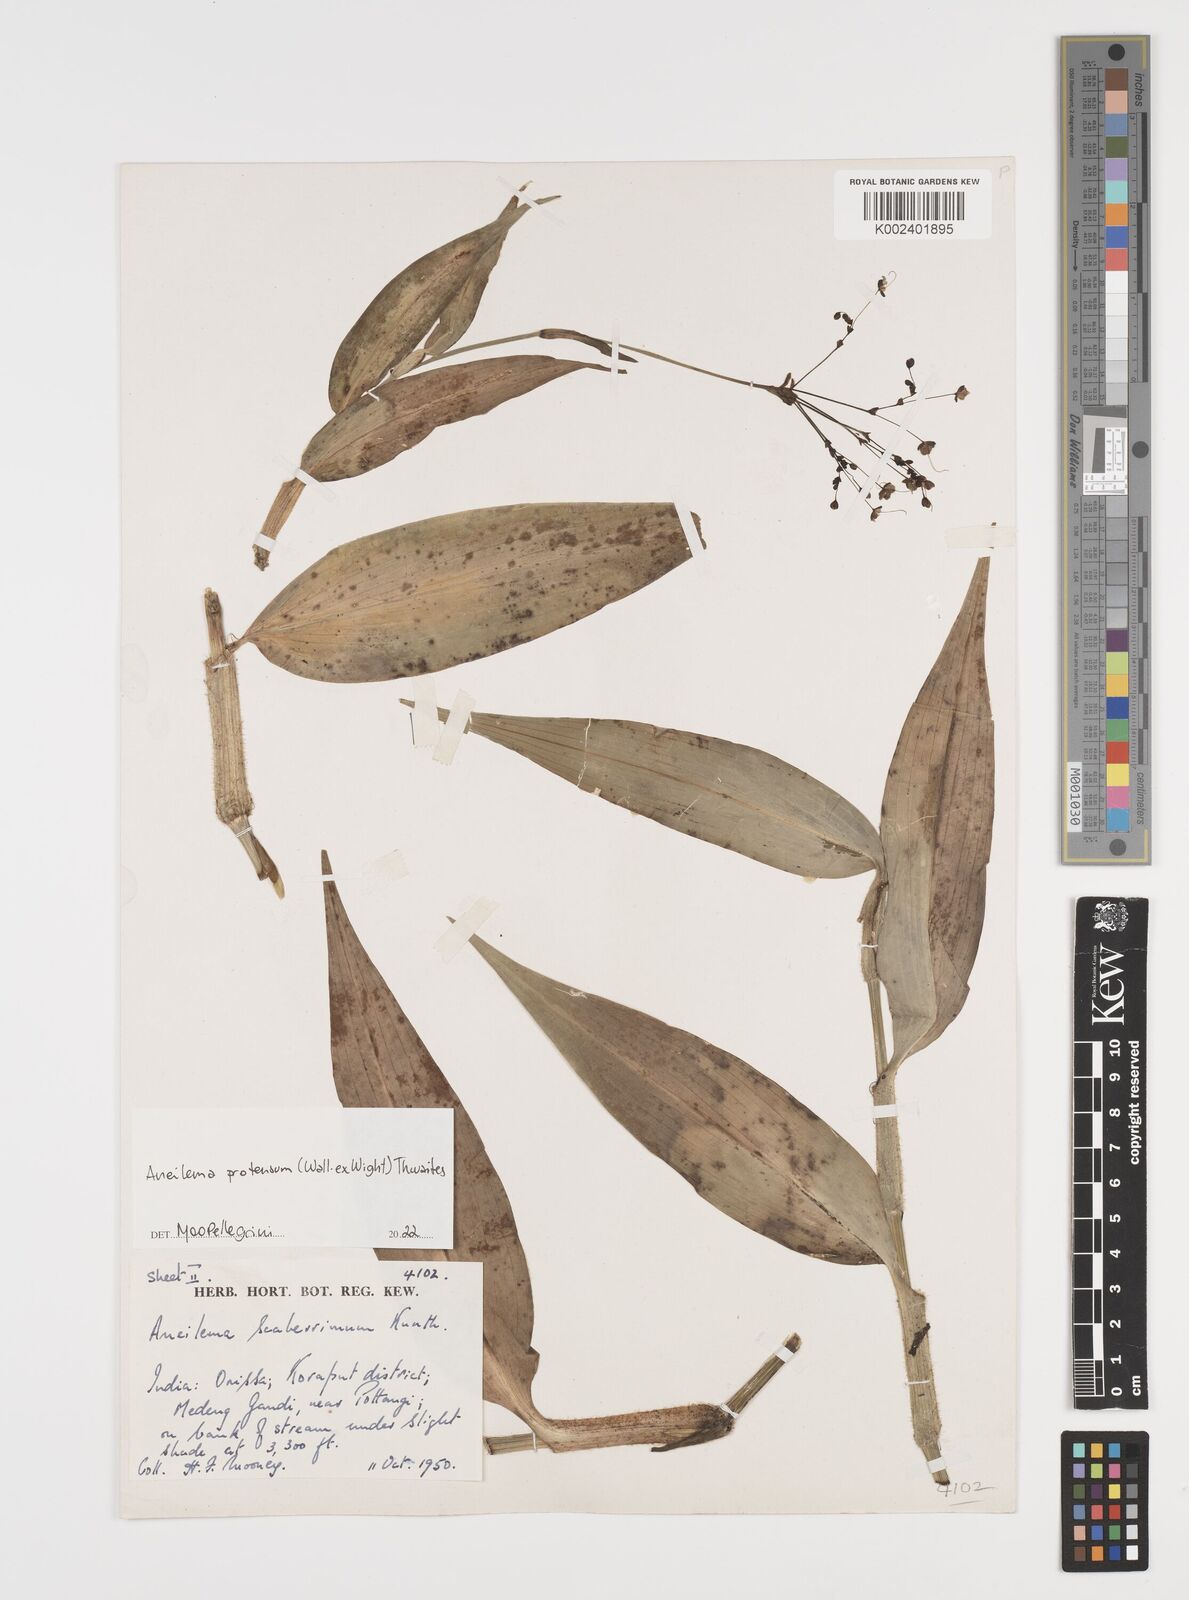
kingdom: Plantae
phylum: Tracheophyta
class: Liliopsida
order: Commelinales
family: Commelinaceae
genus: Rhopalephora
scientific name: Rhopalephora
